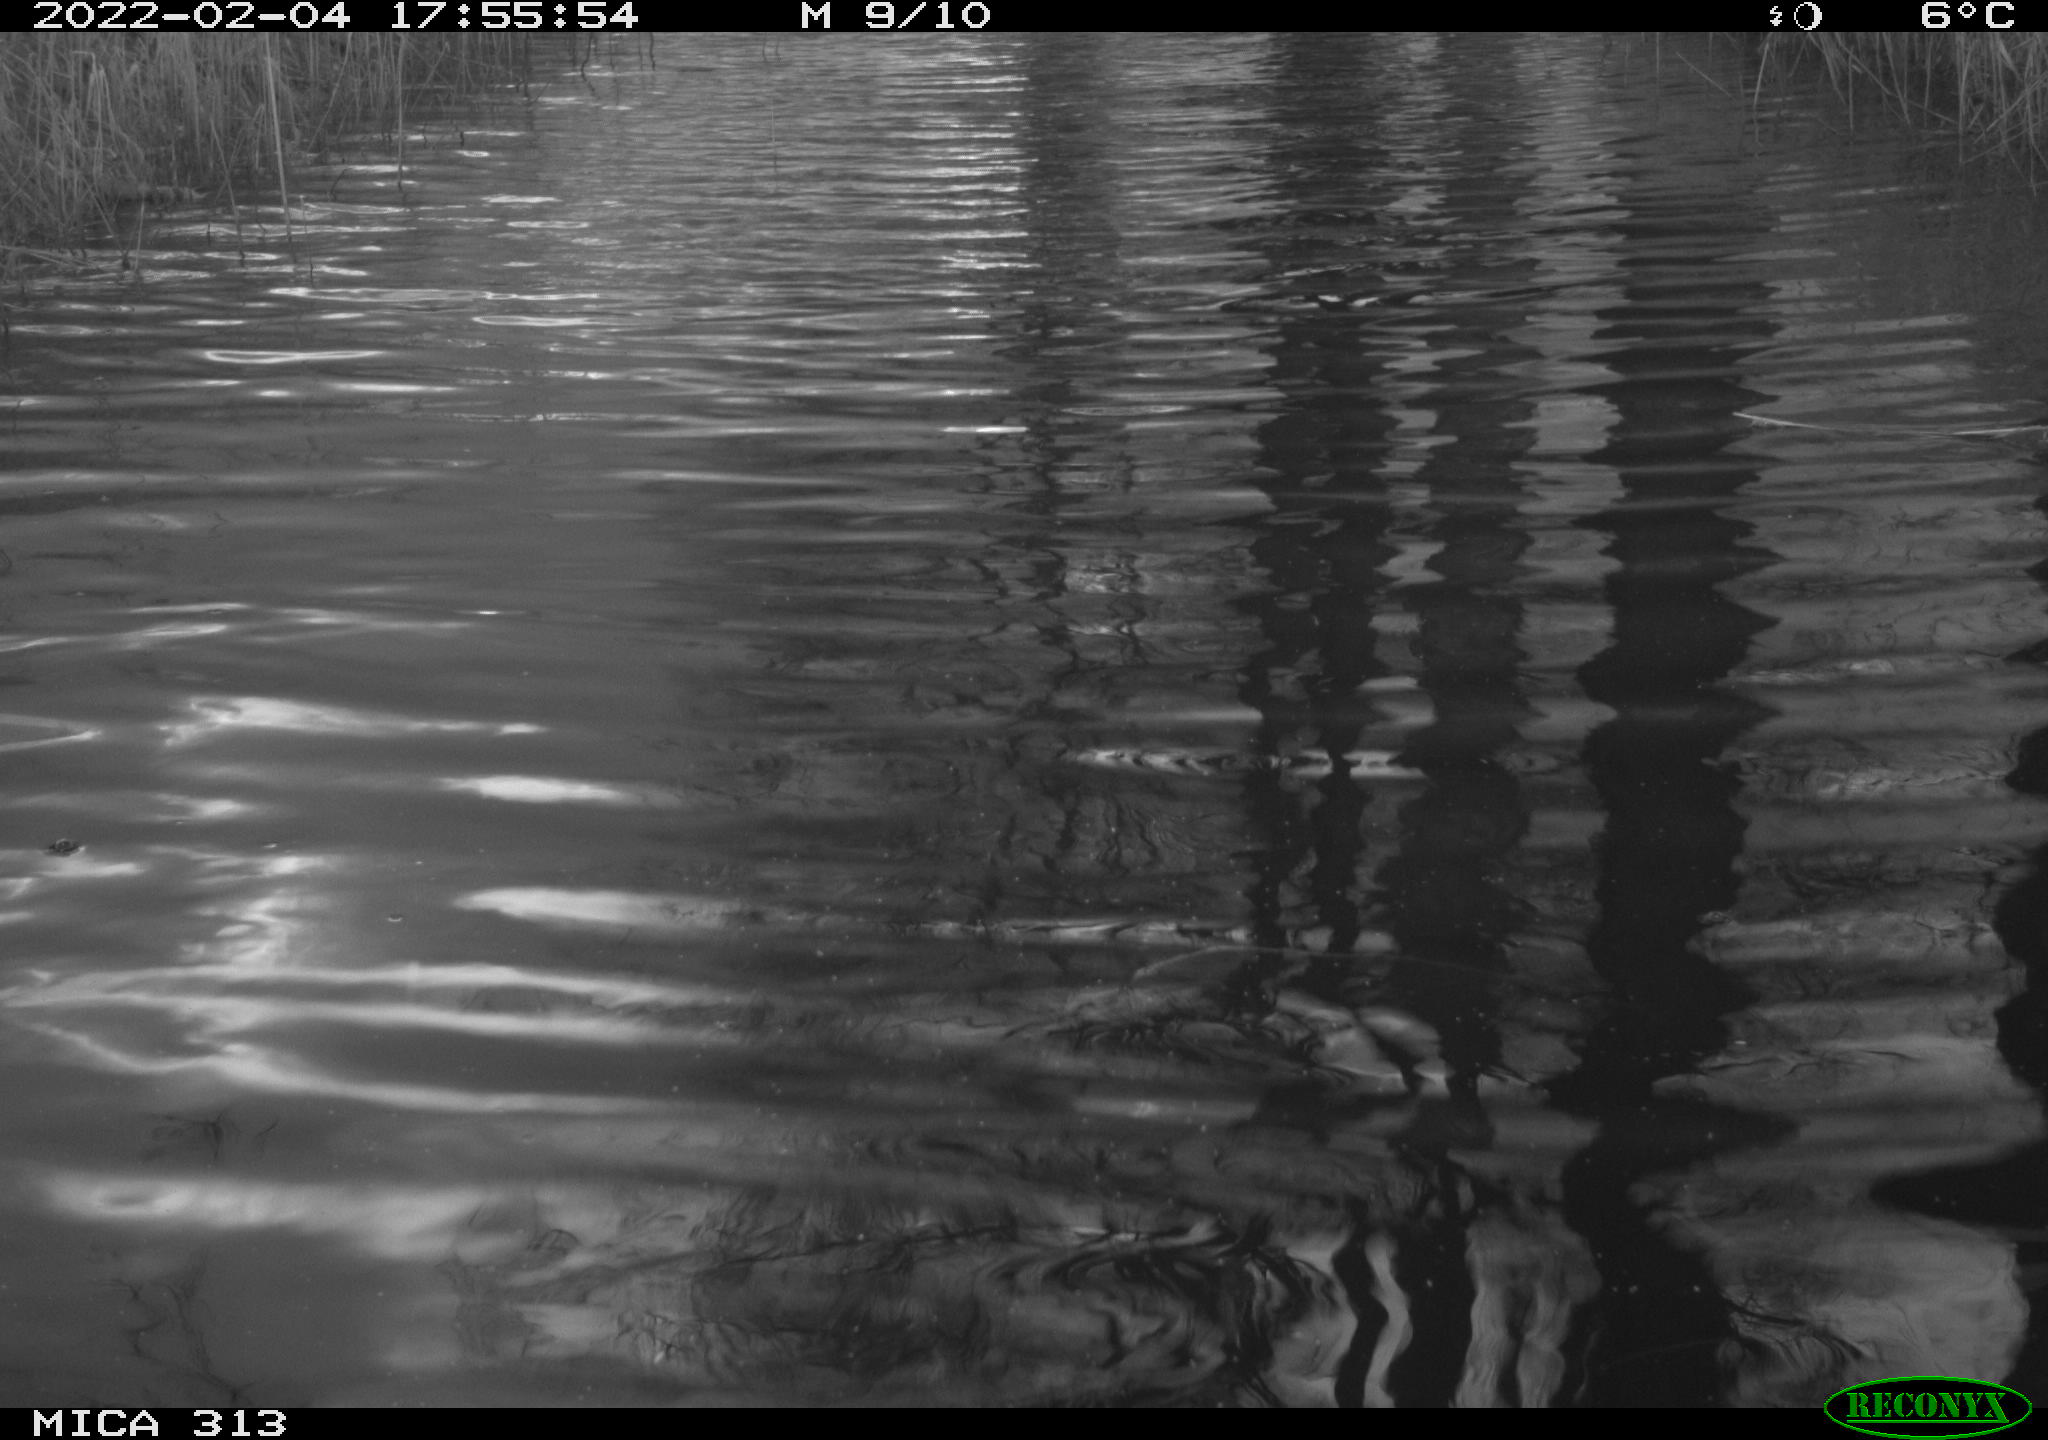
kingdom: Animalia
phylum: Chordata
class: Aves
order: Gruiformes
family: Rallidae
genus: Gallinula
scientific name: Gallinula chloropus
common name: Common moorhen
